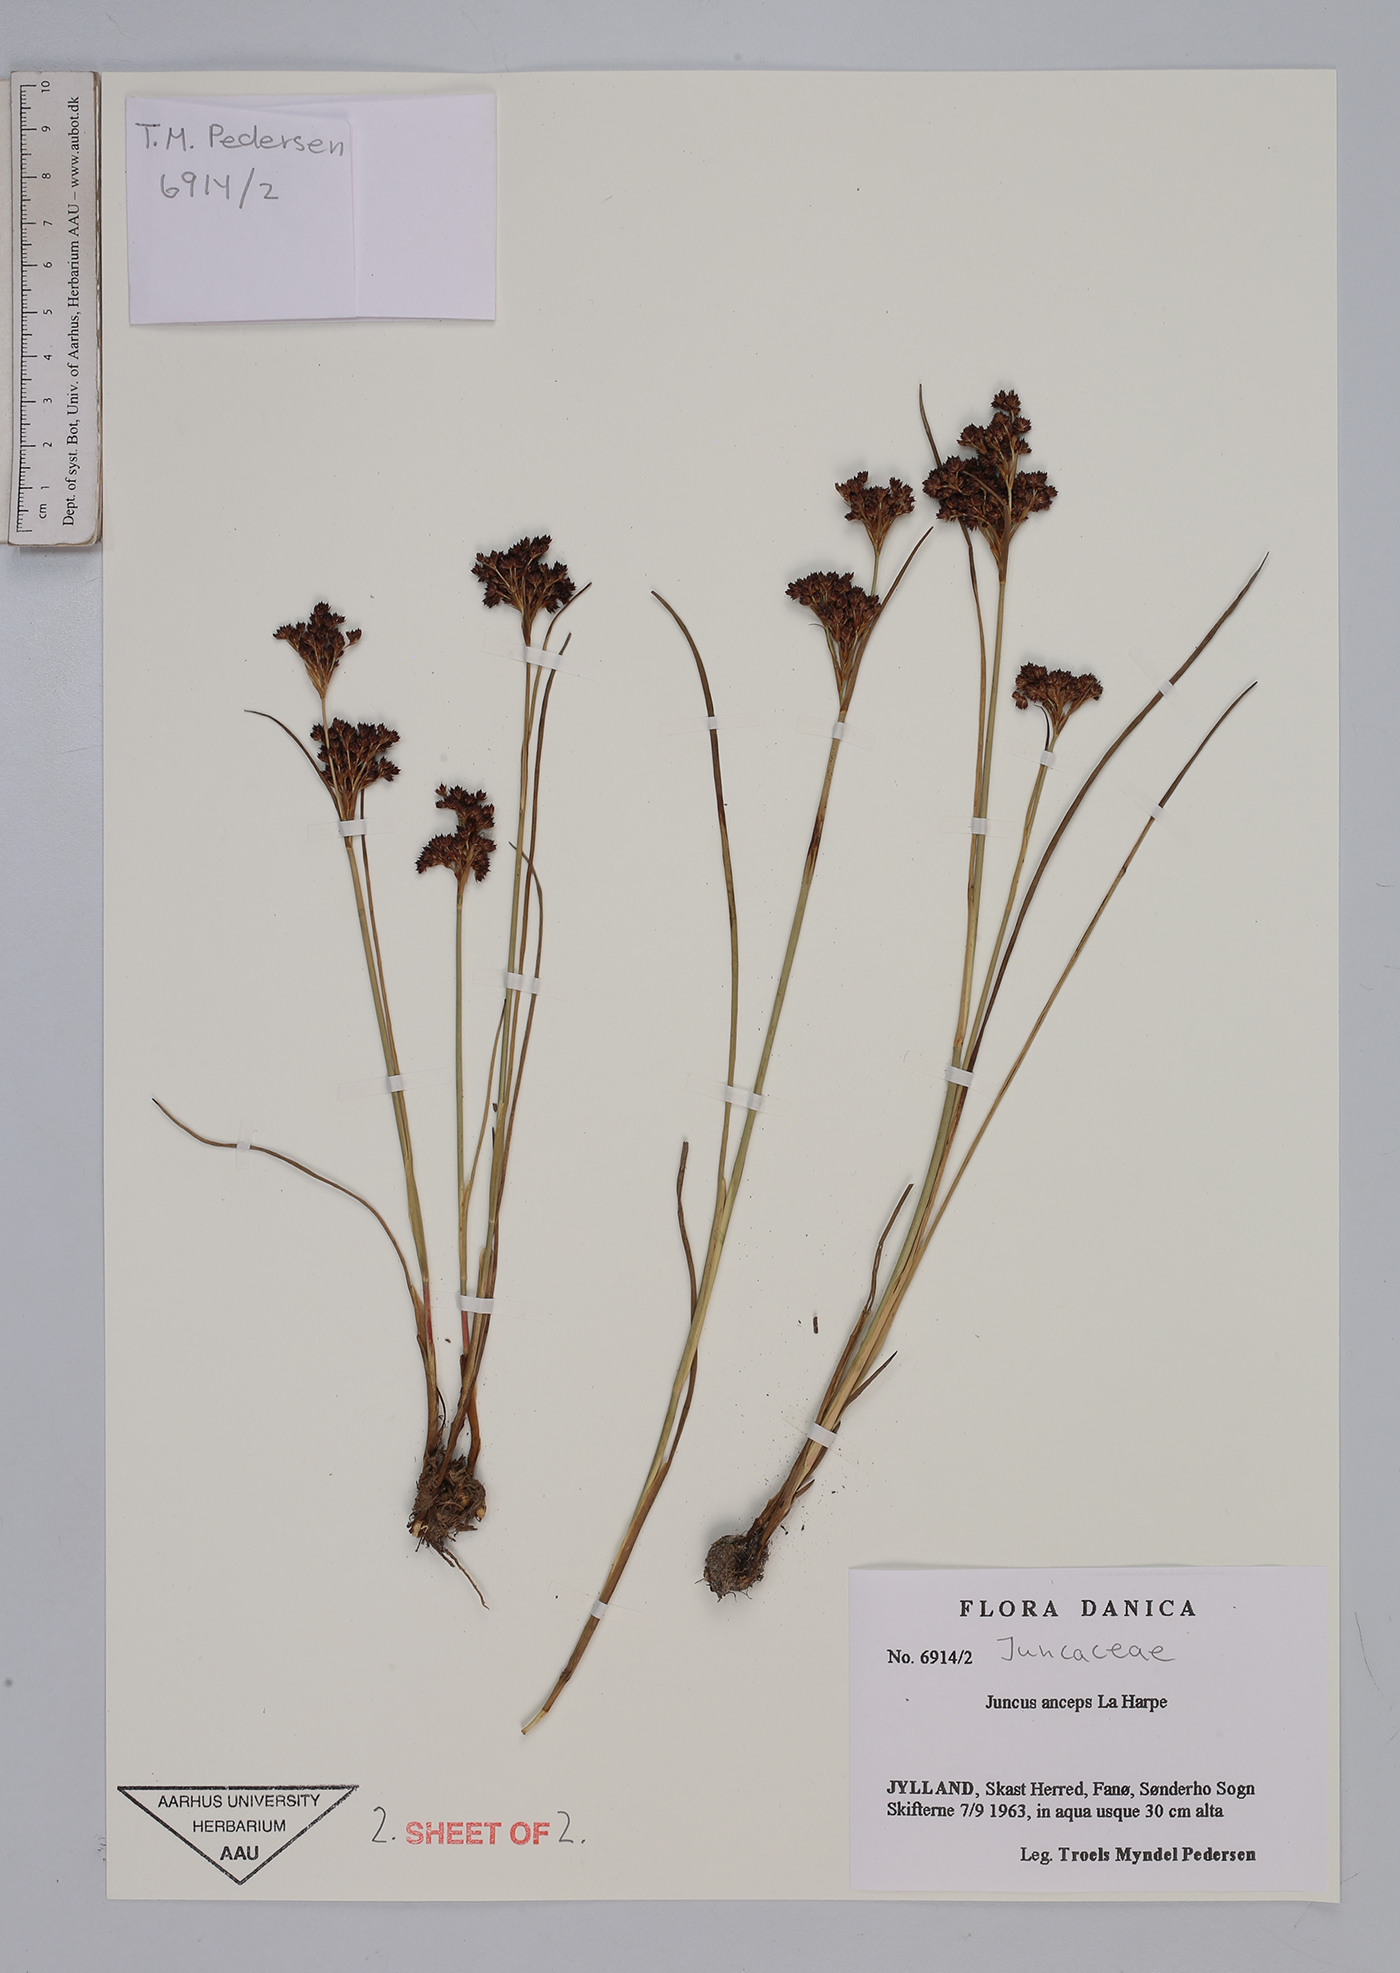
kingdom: Plantae
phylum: Tracheophyta
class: Liliopsida
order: Poales
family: Juncaceae
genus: Juncus
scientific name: Juncus anceps
